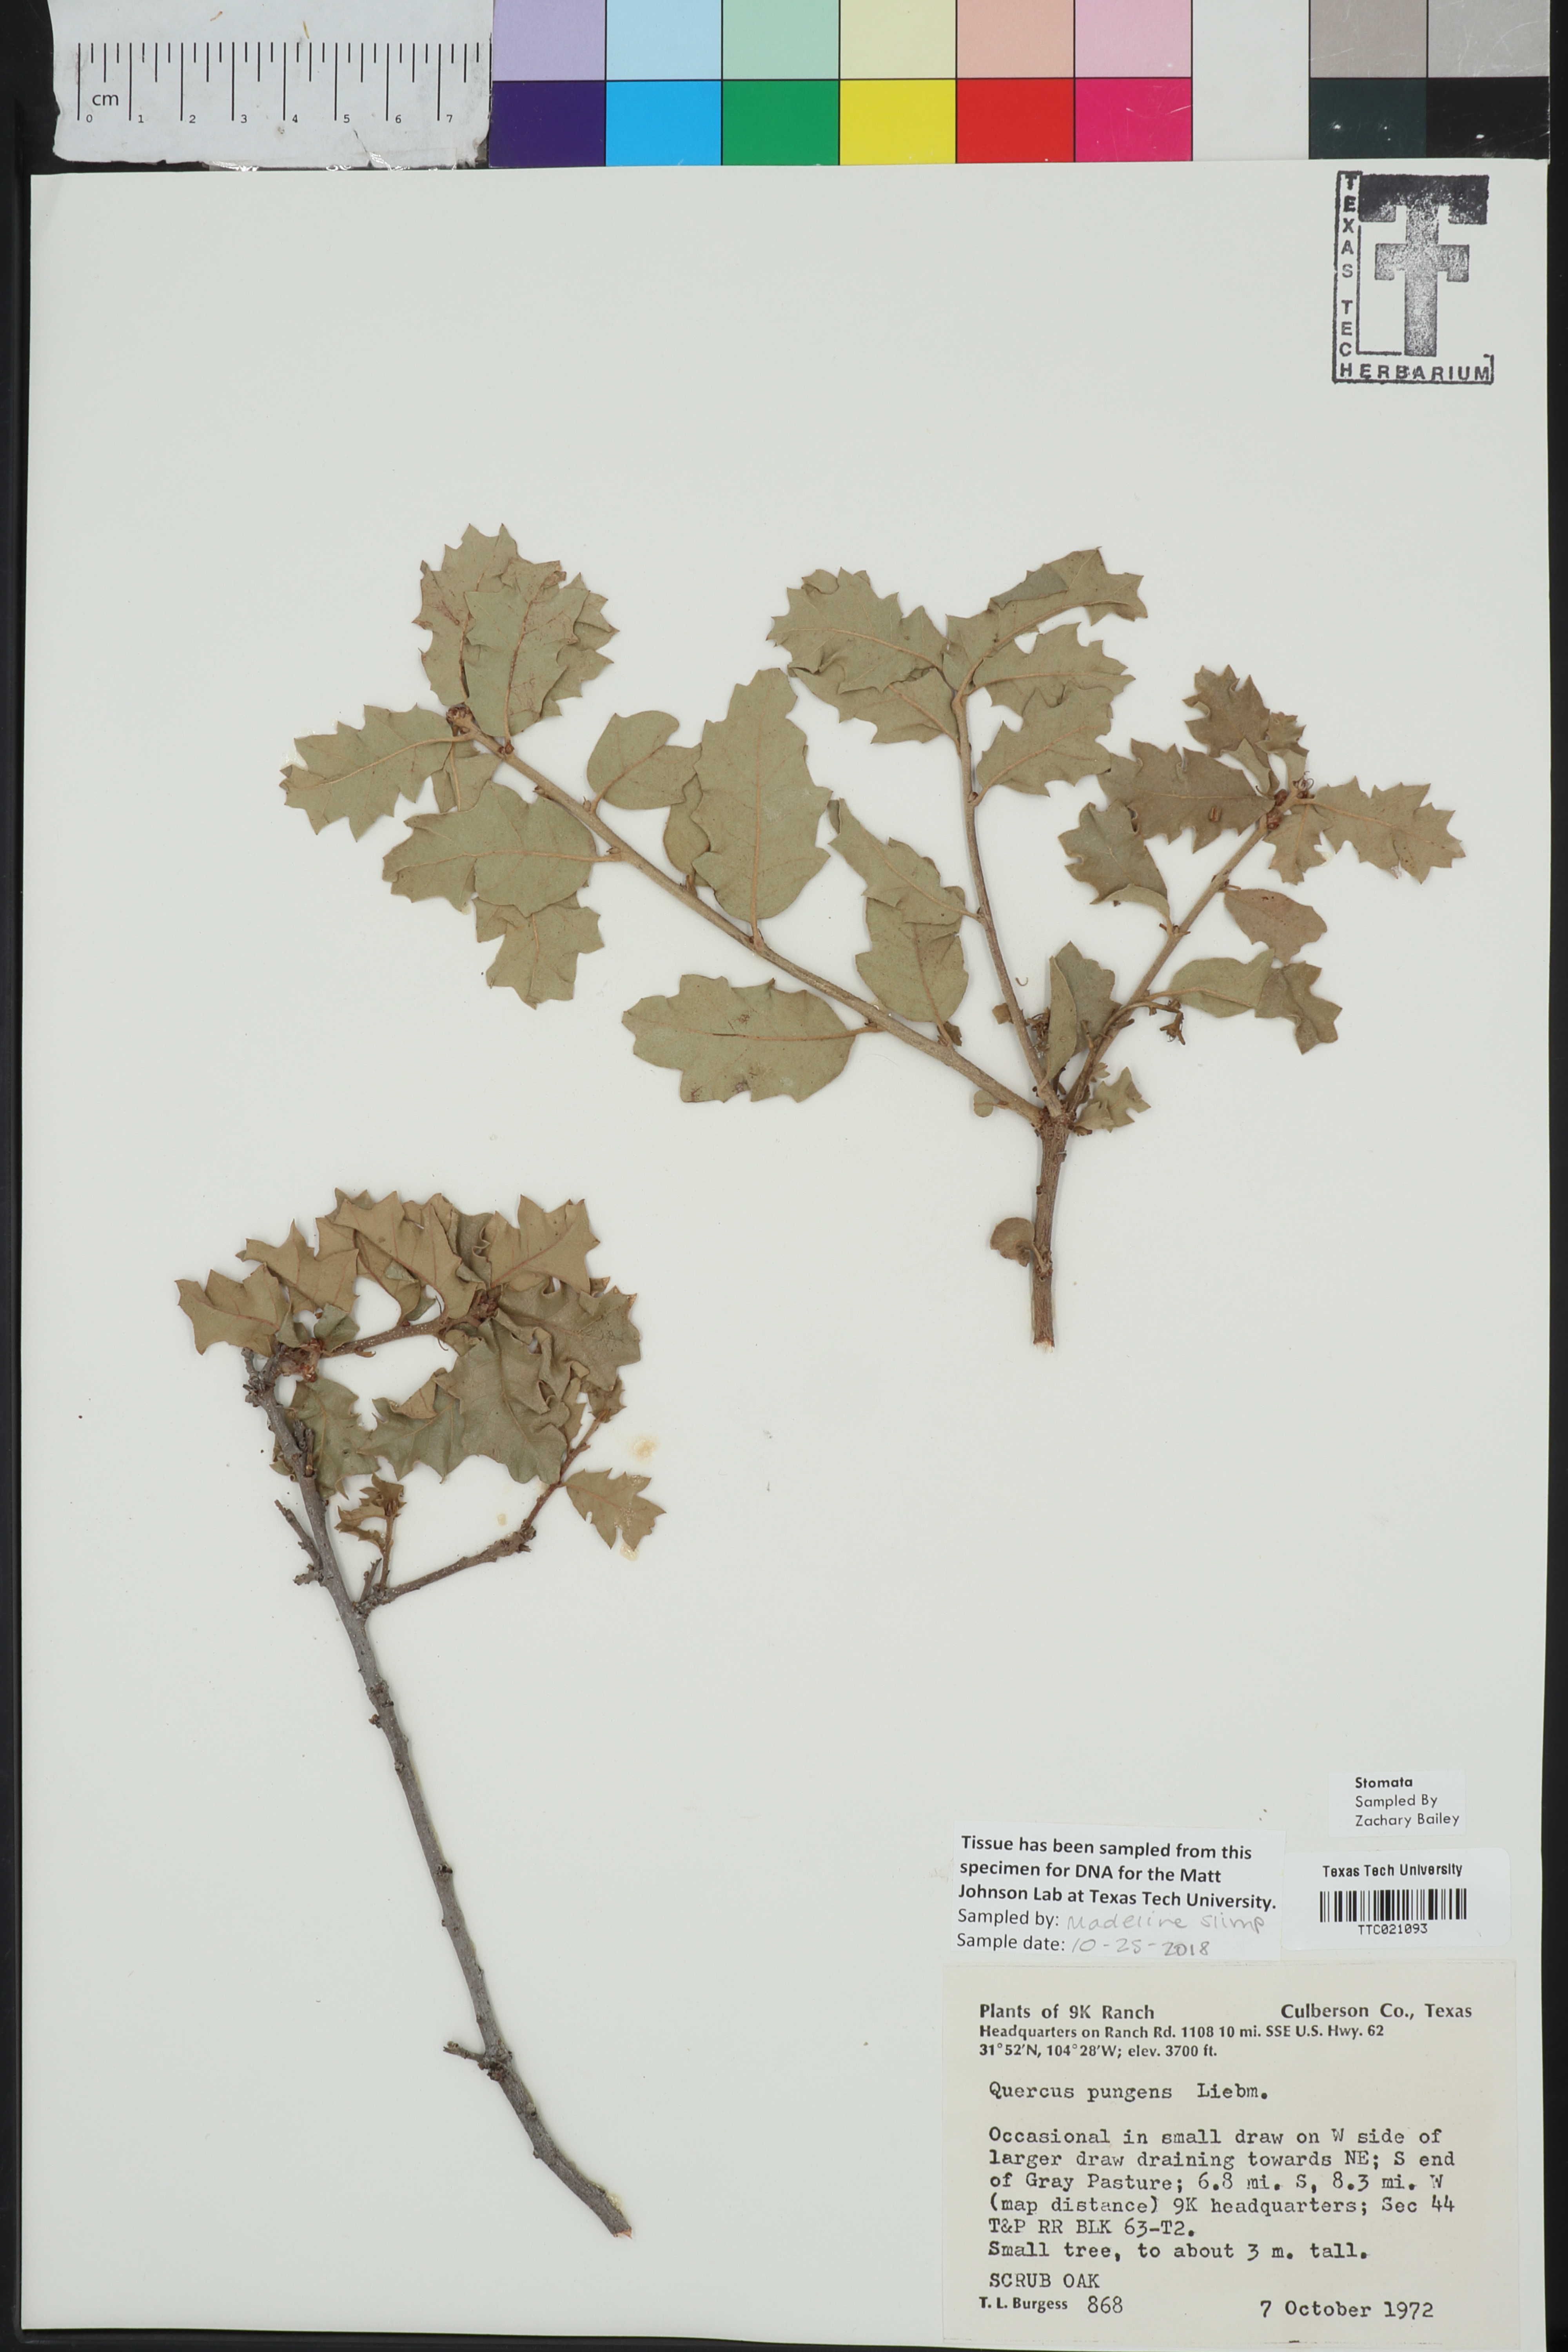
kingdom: Plantae
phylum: Tracheophyta
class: Magnoliopsida
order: Fagales
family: Fagaceae
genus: Quercus
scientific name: Quercus pungens
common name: Pungent oak
